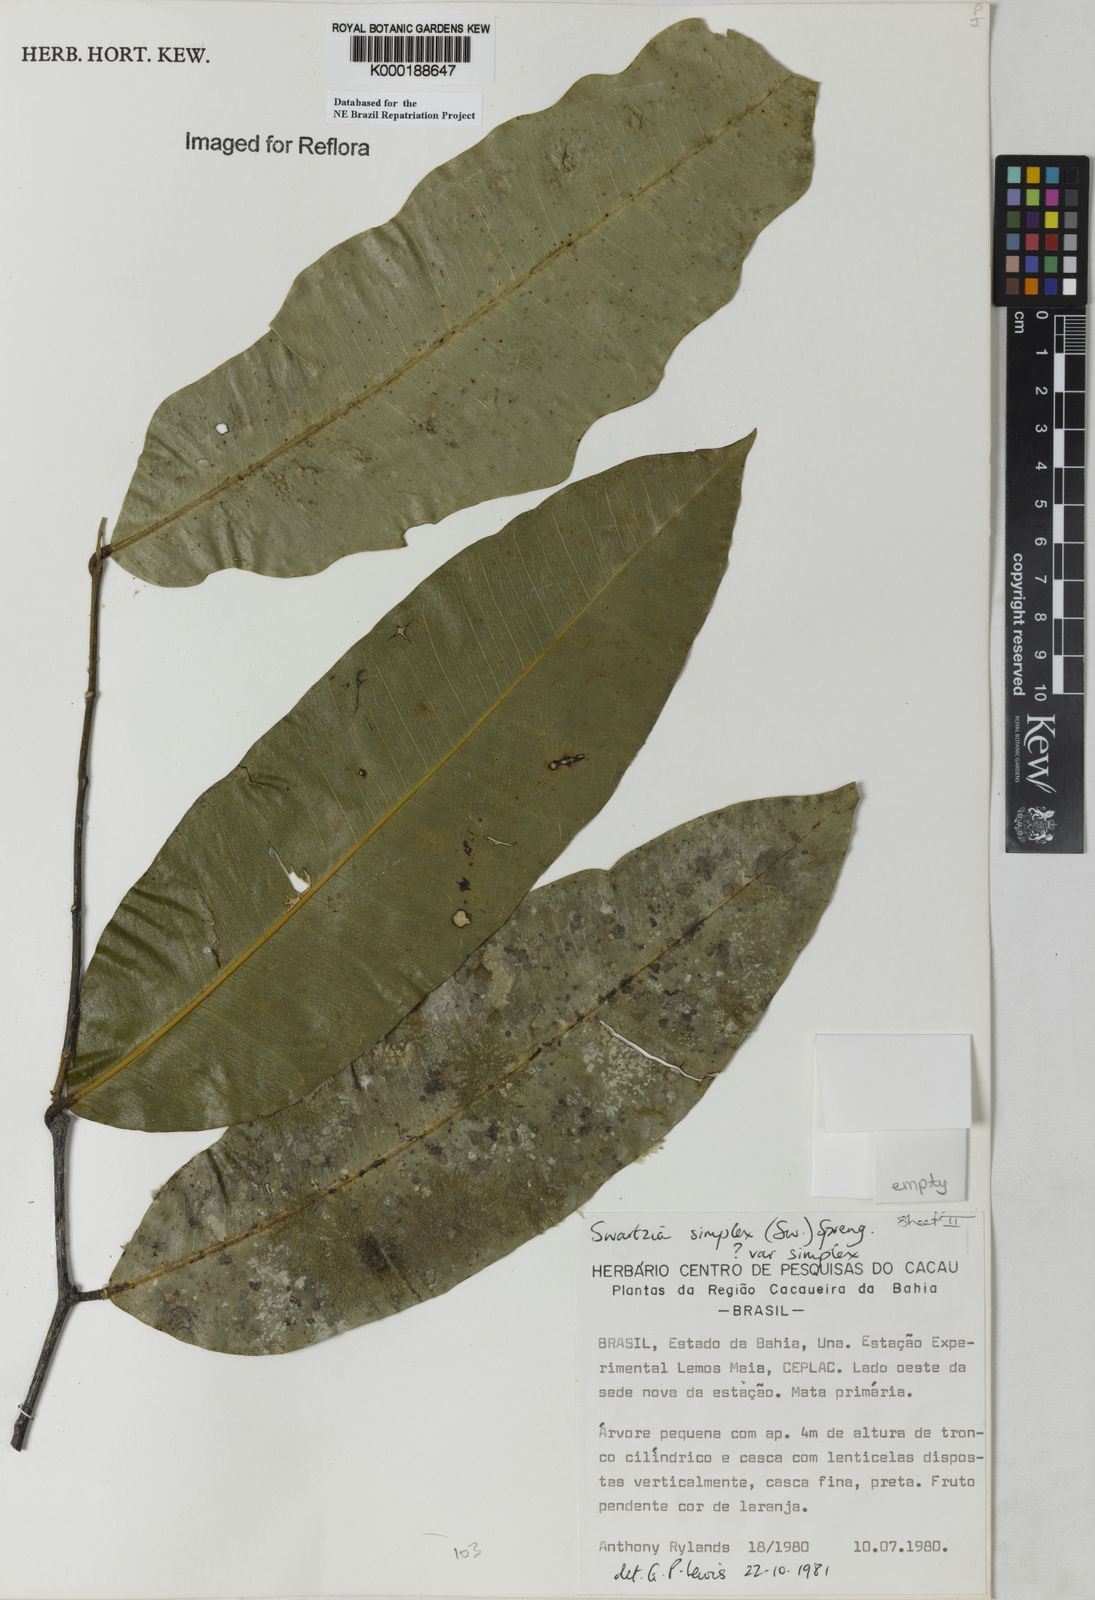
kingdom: Plantae
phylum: Tracheophyta
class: Magnoliopsida
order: Fabales
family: Fabaceae
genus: Swartzia
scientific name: Swartzia simplex
